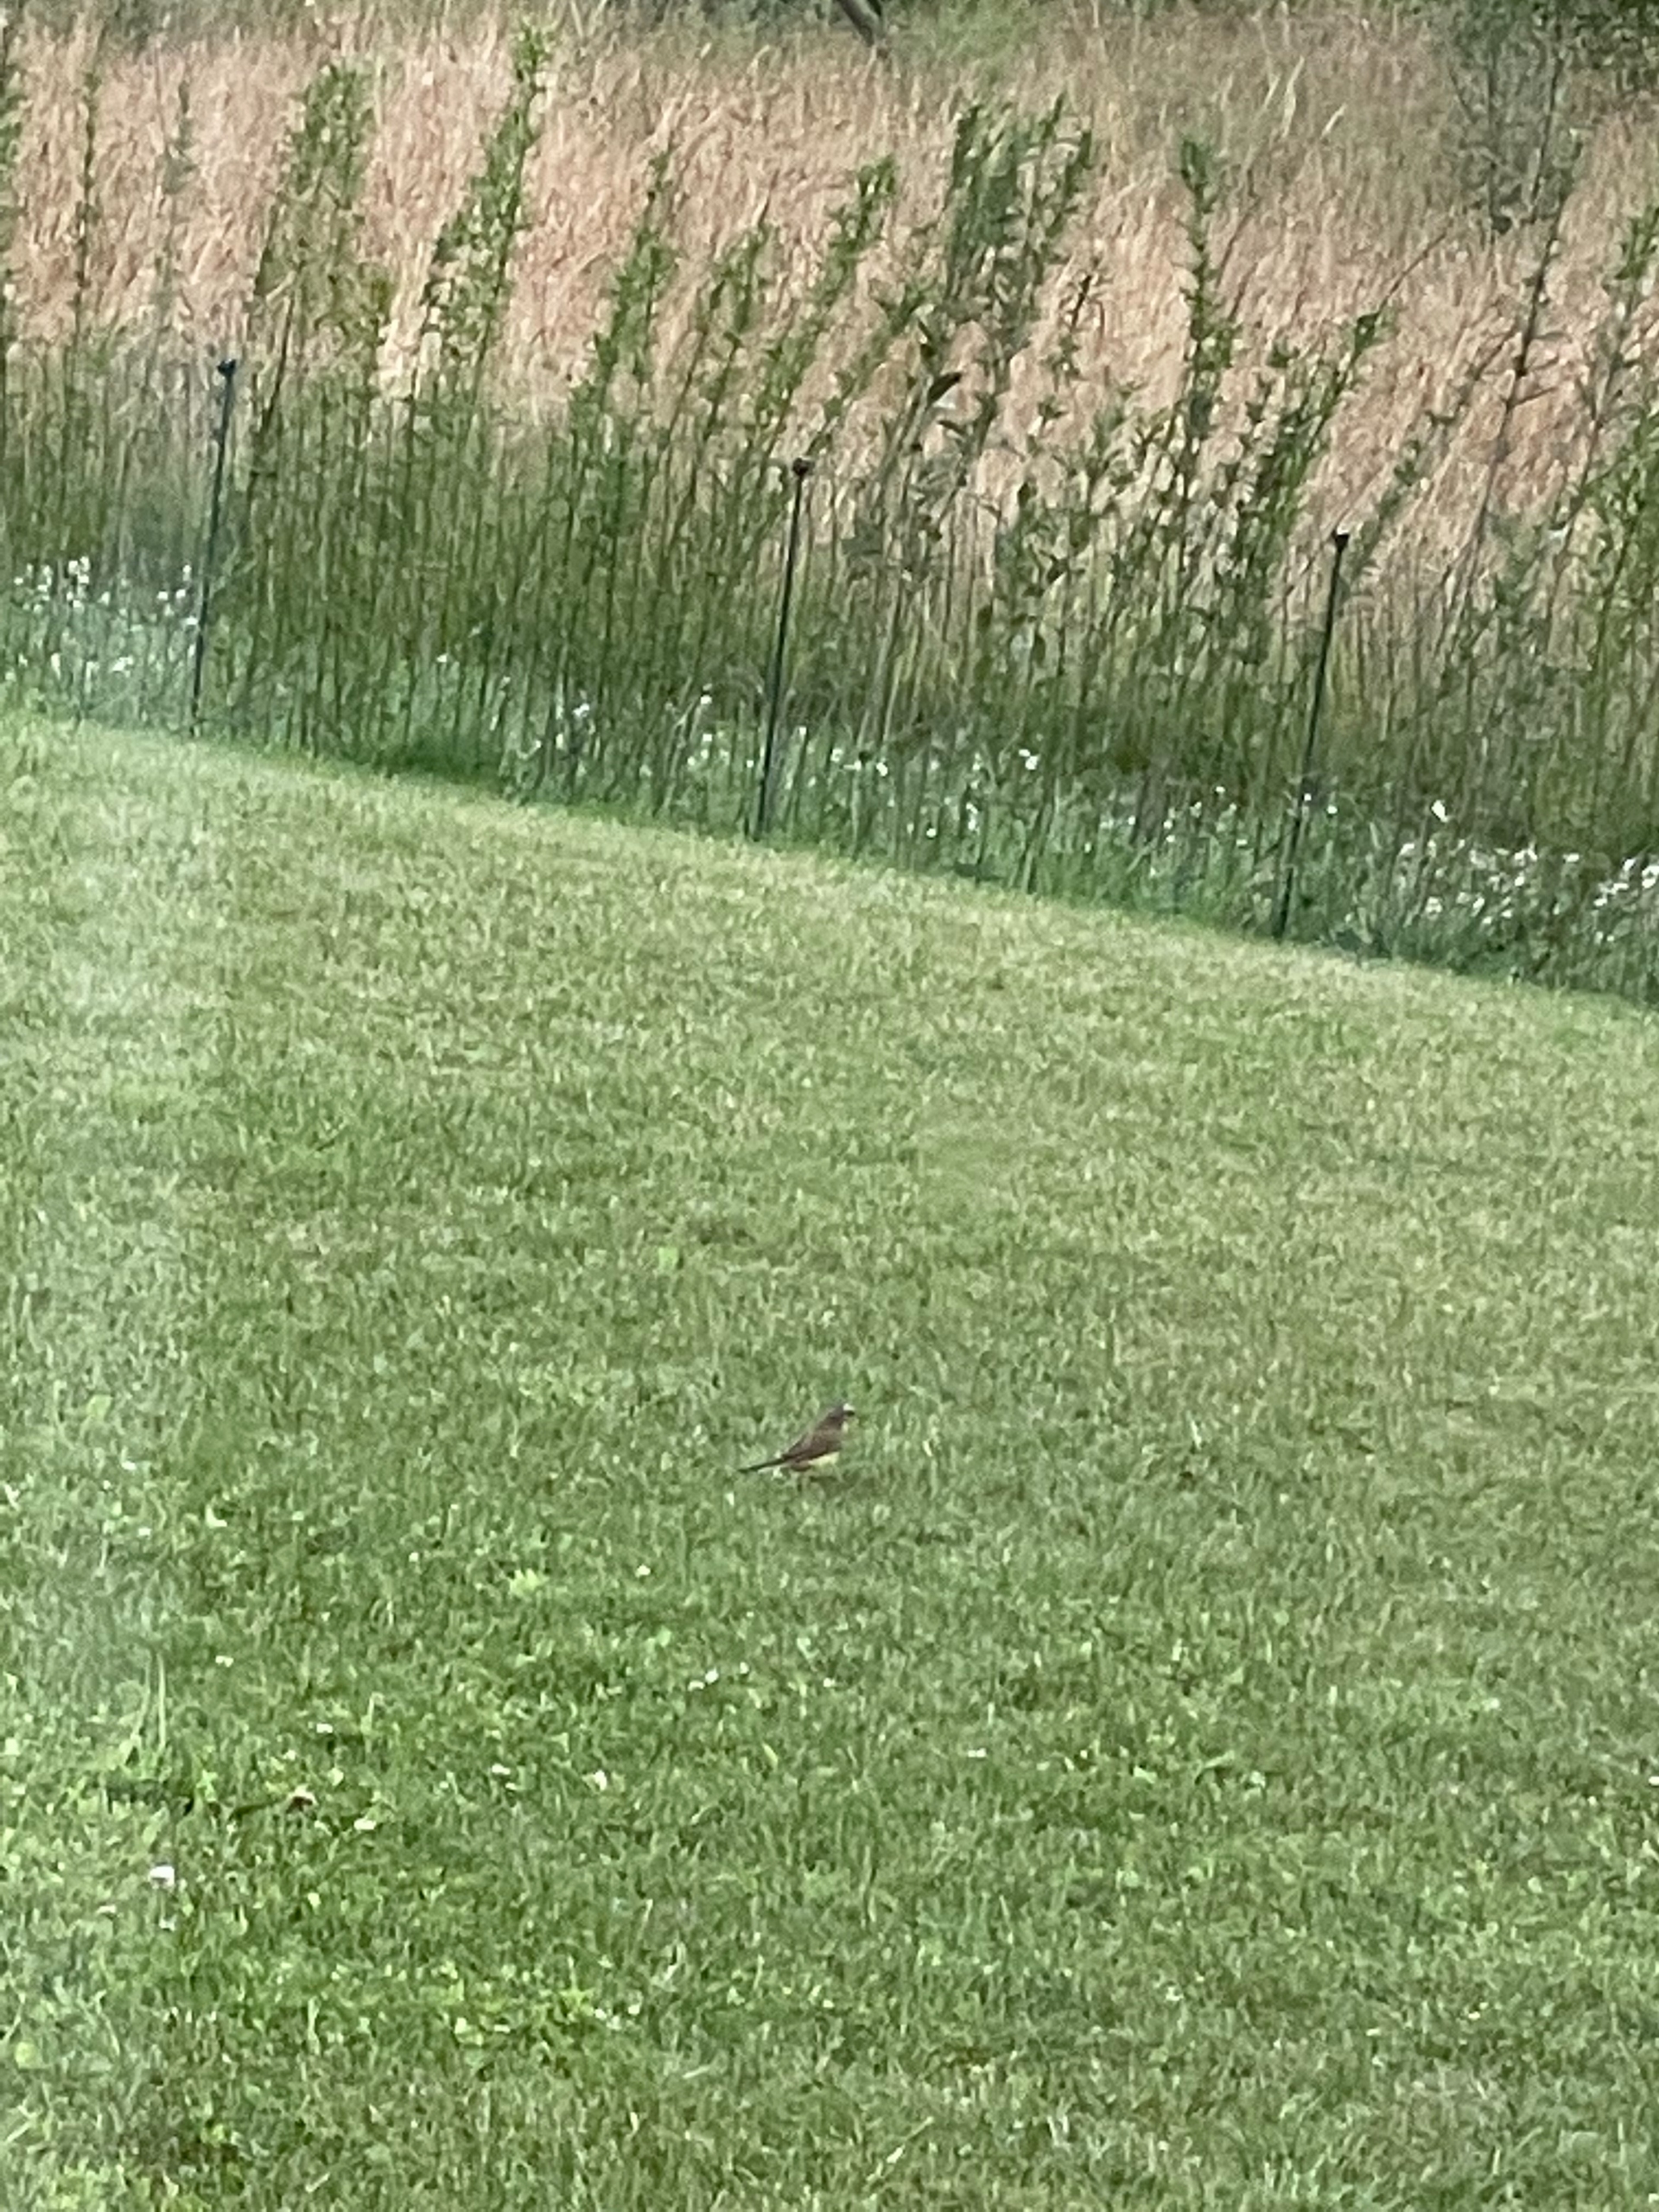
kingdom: Animalia
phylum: Chordata
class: Aves
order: Passeriformes
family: Motacillidae
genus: Motacilla
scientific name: Motacilla flava
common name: Gul vipstjert
